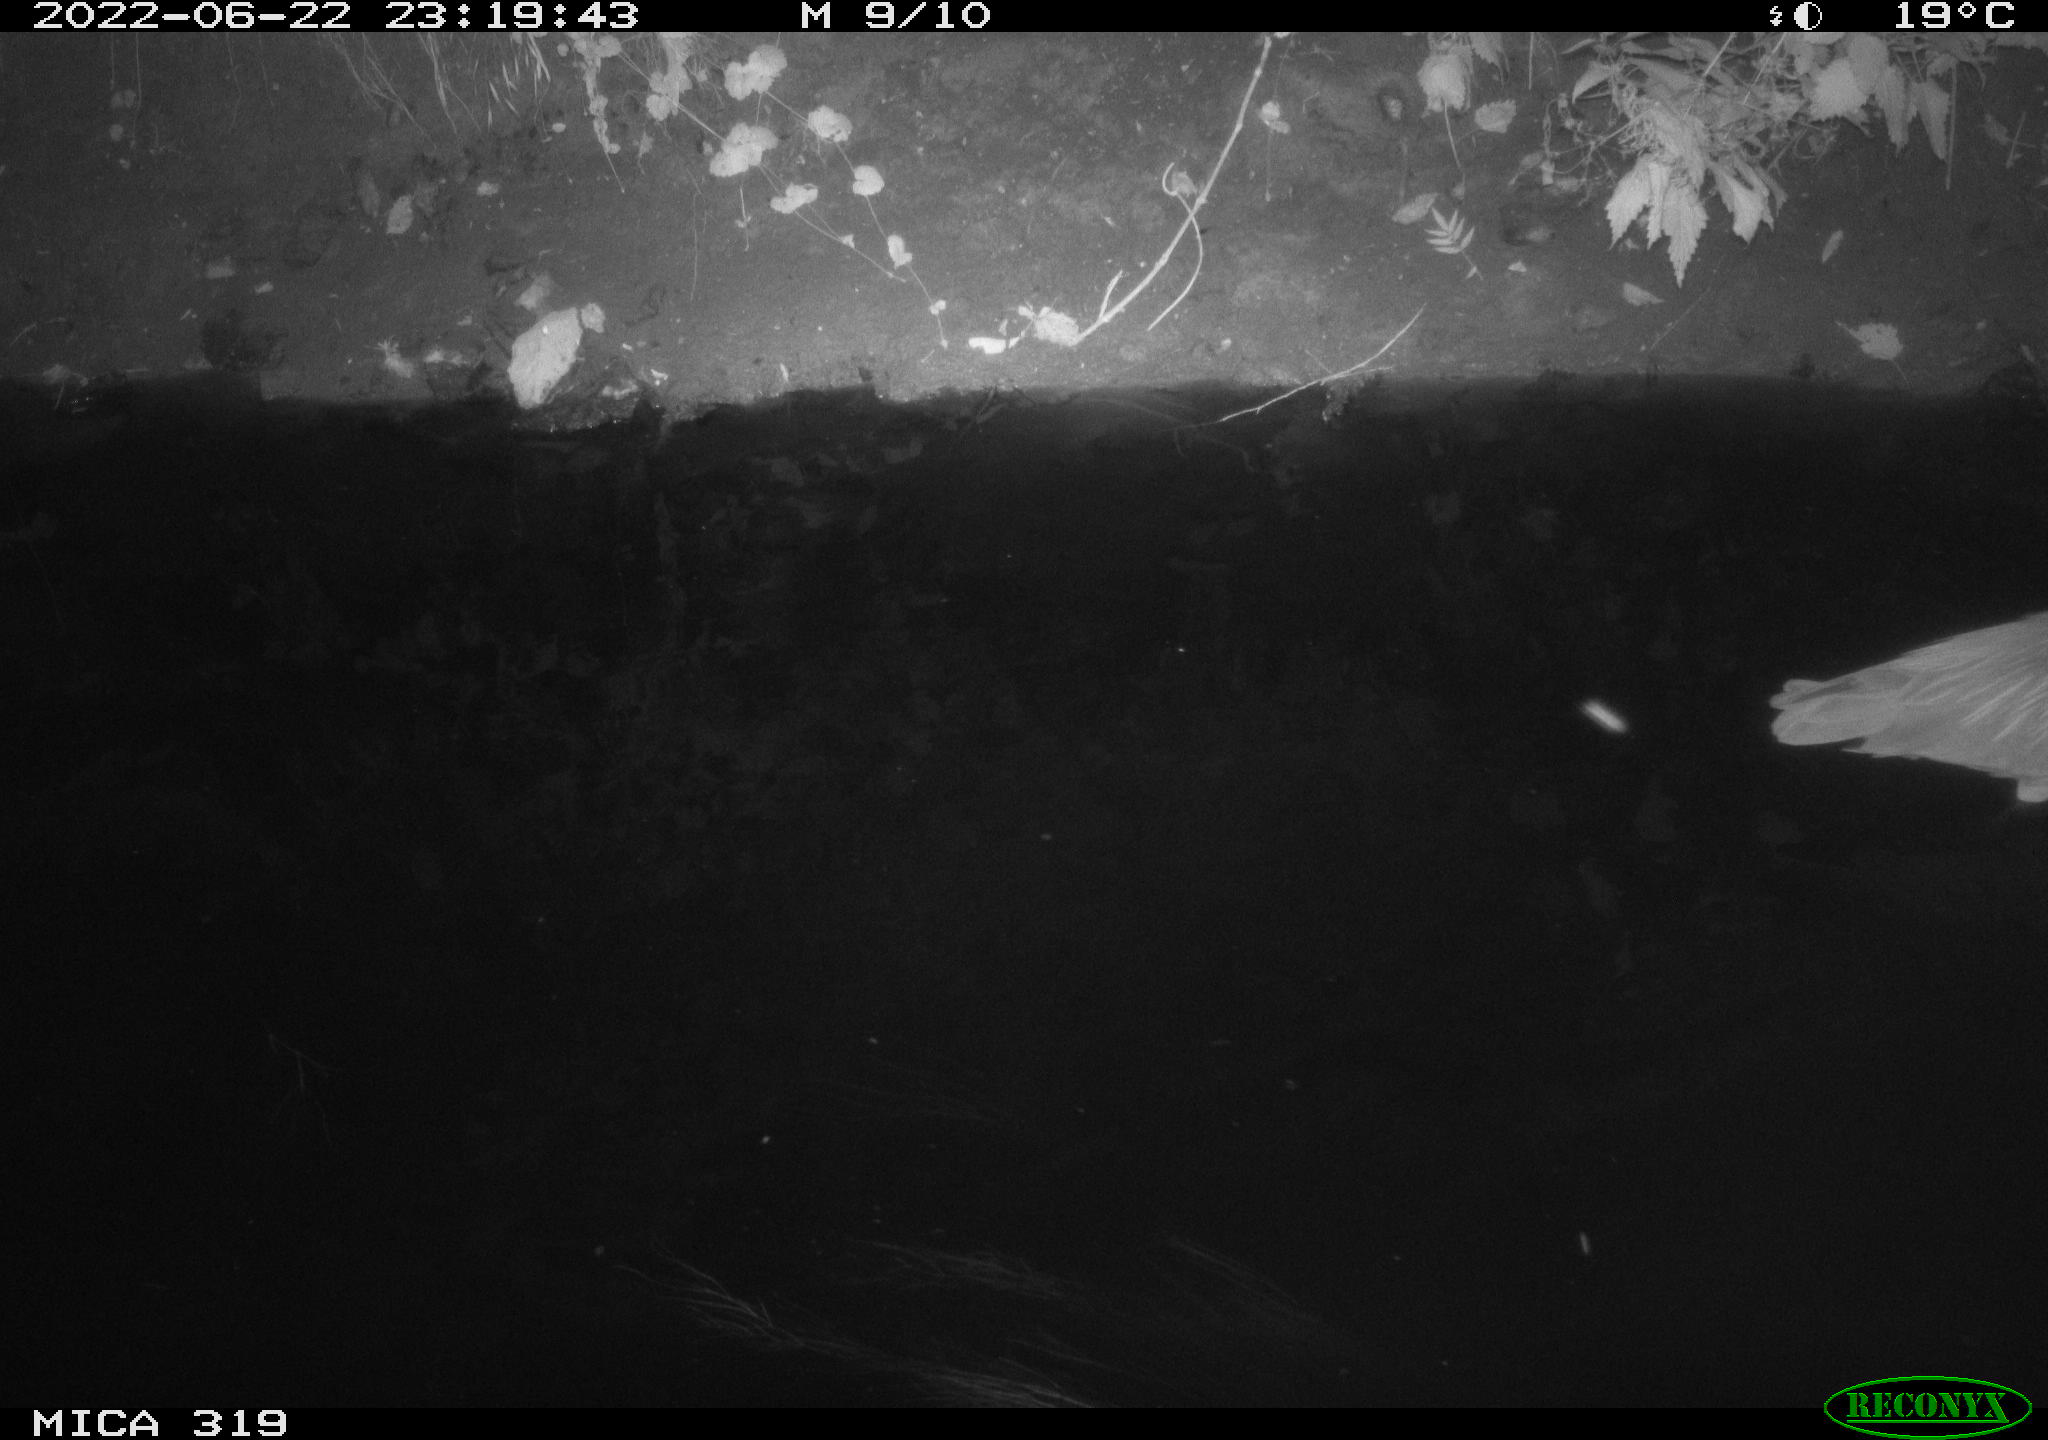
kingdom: Animalia
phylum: Chordata
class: Aves
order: Pelecaniformes
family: Ardeidae
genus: Ardea
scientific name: Ardea
